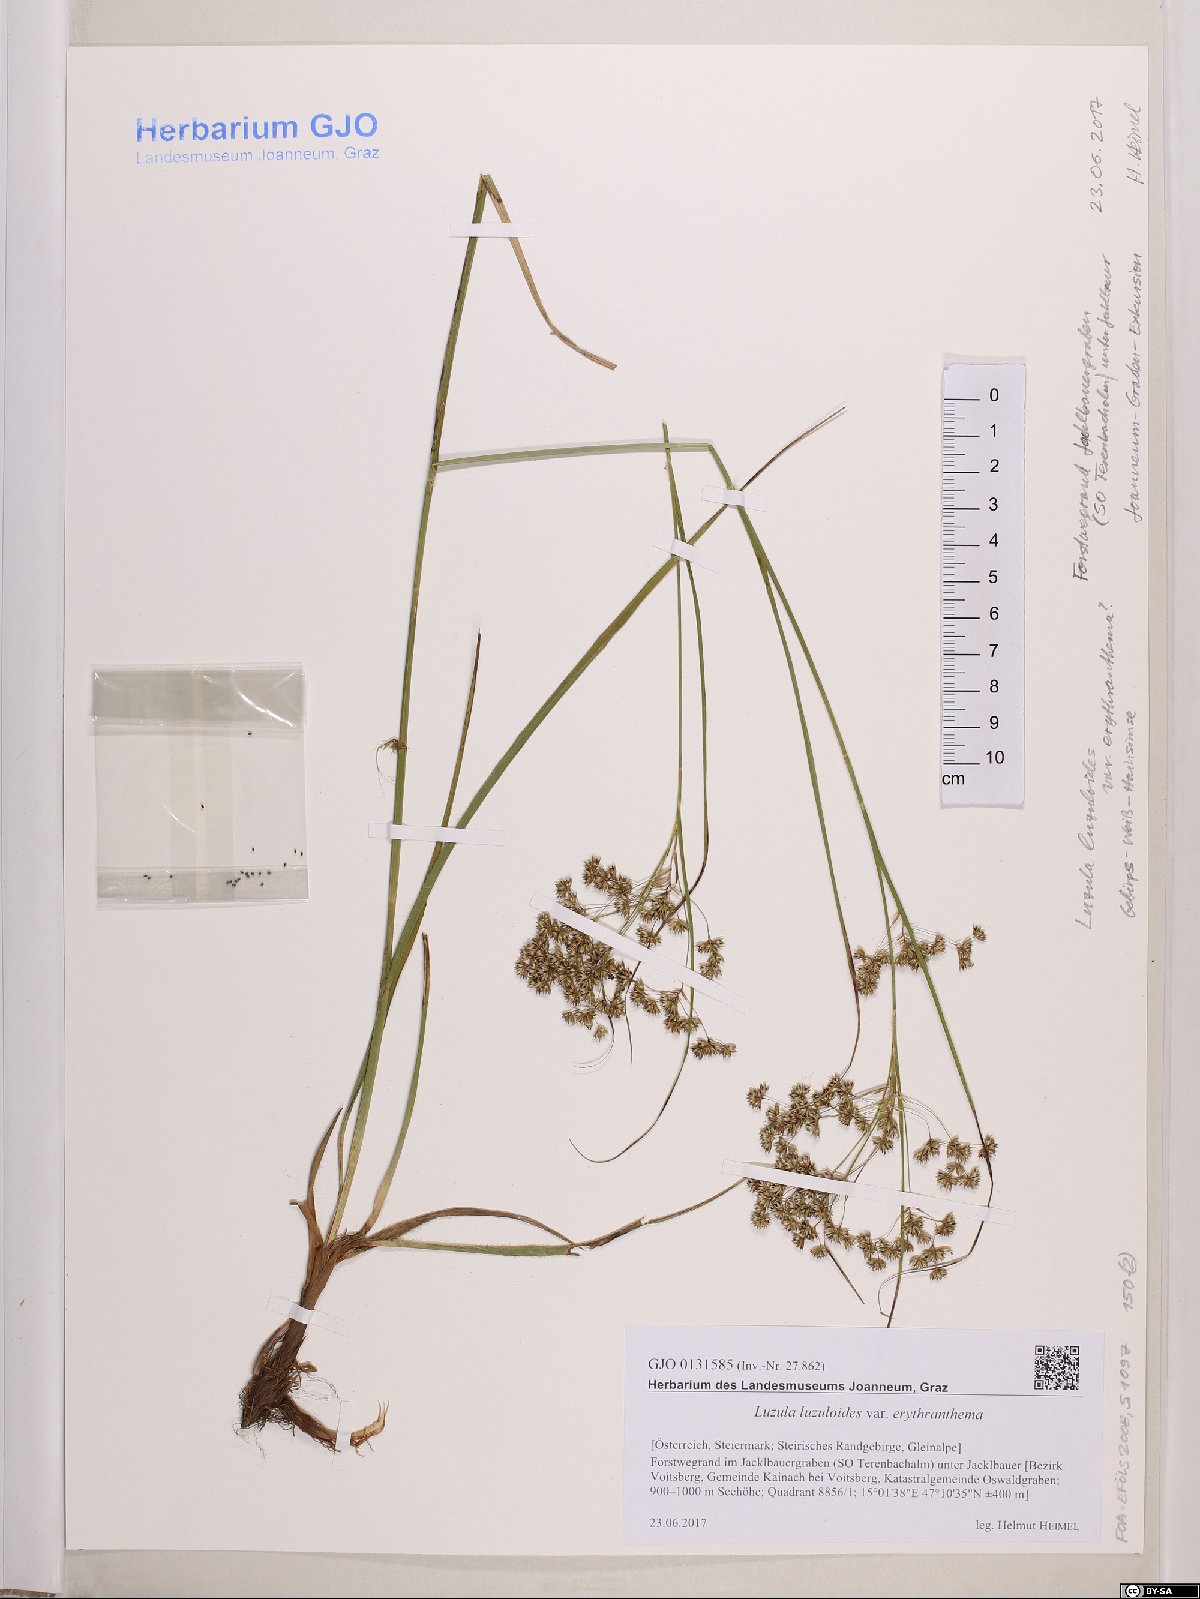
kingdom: Plantae
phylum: Tracheophyta
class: Liliopsida
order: Poales
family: Juncaceae
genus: Luzula
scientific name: Luzula luzuloides
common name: White wood-rush
